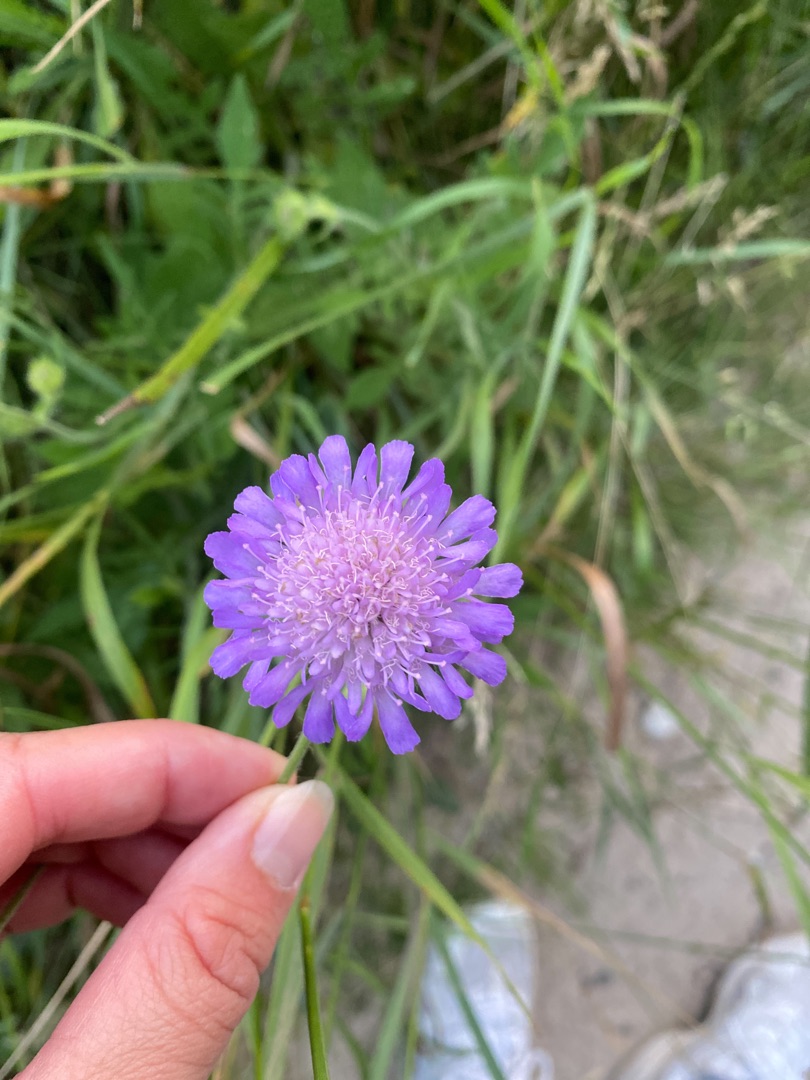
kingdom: Plantae
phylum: Tracheophyta
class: Magnoliopsida
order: Dipsacales
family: Caprifoliaceae
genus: Knautia
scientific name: Knautia arvensis
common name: Blåhat
